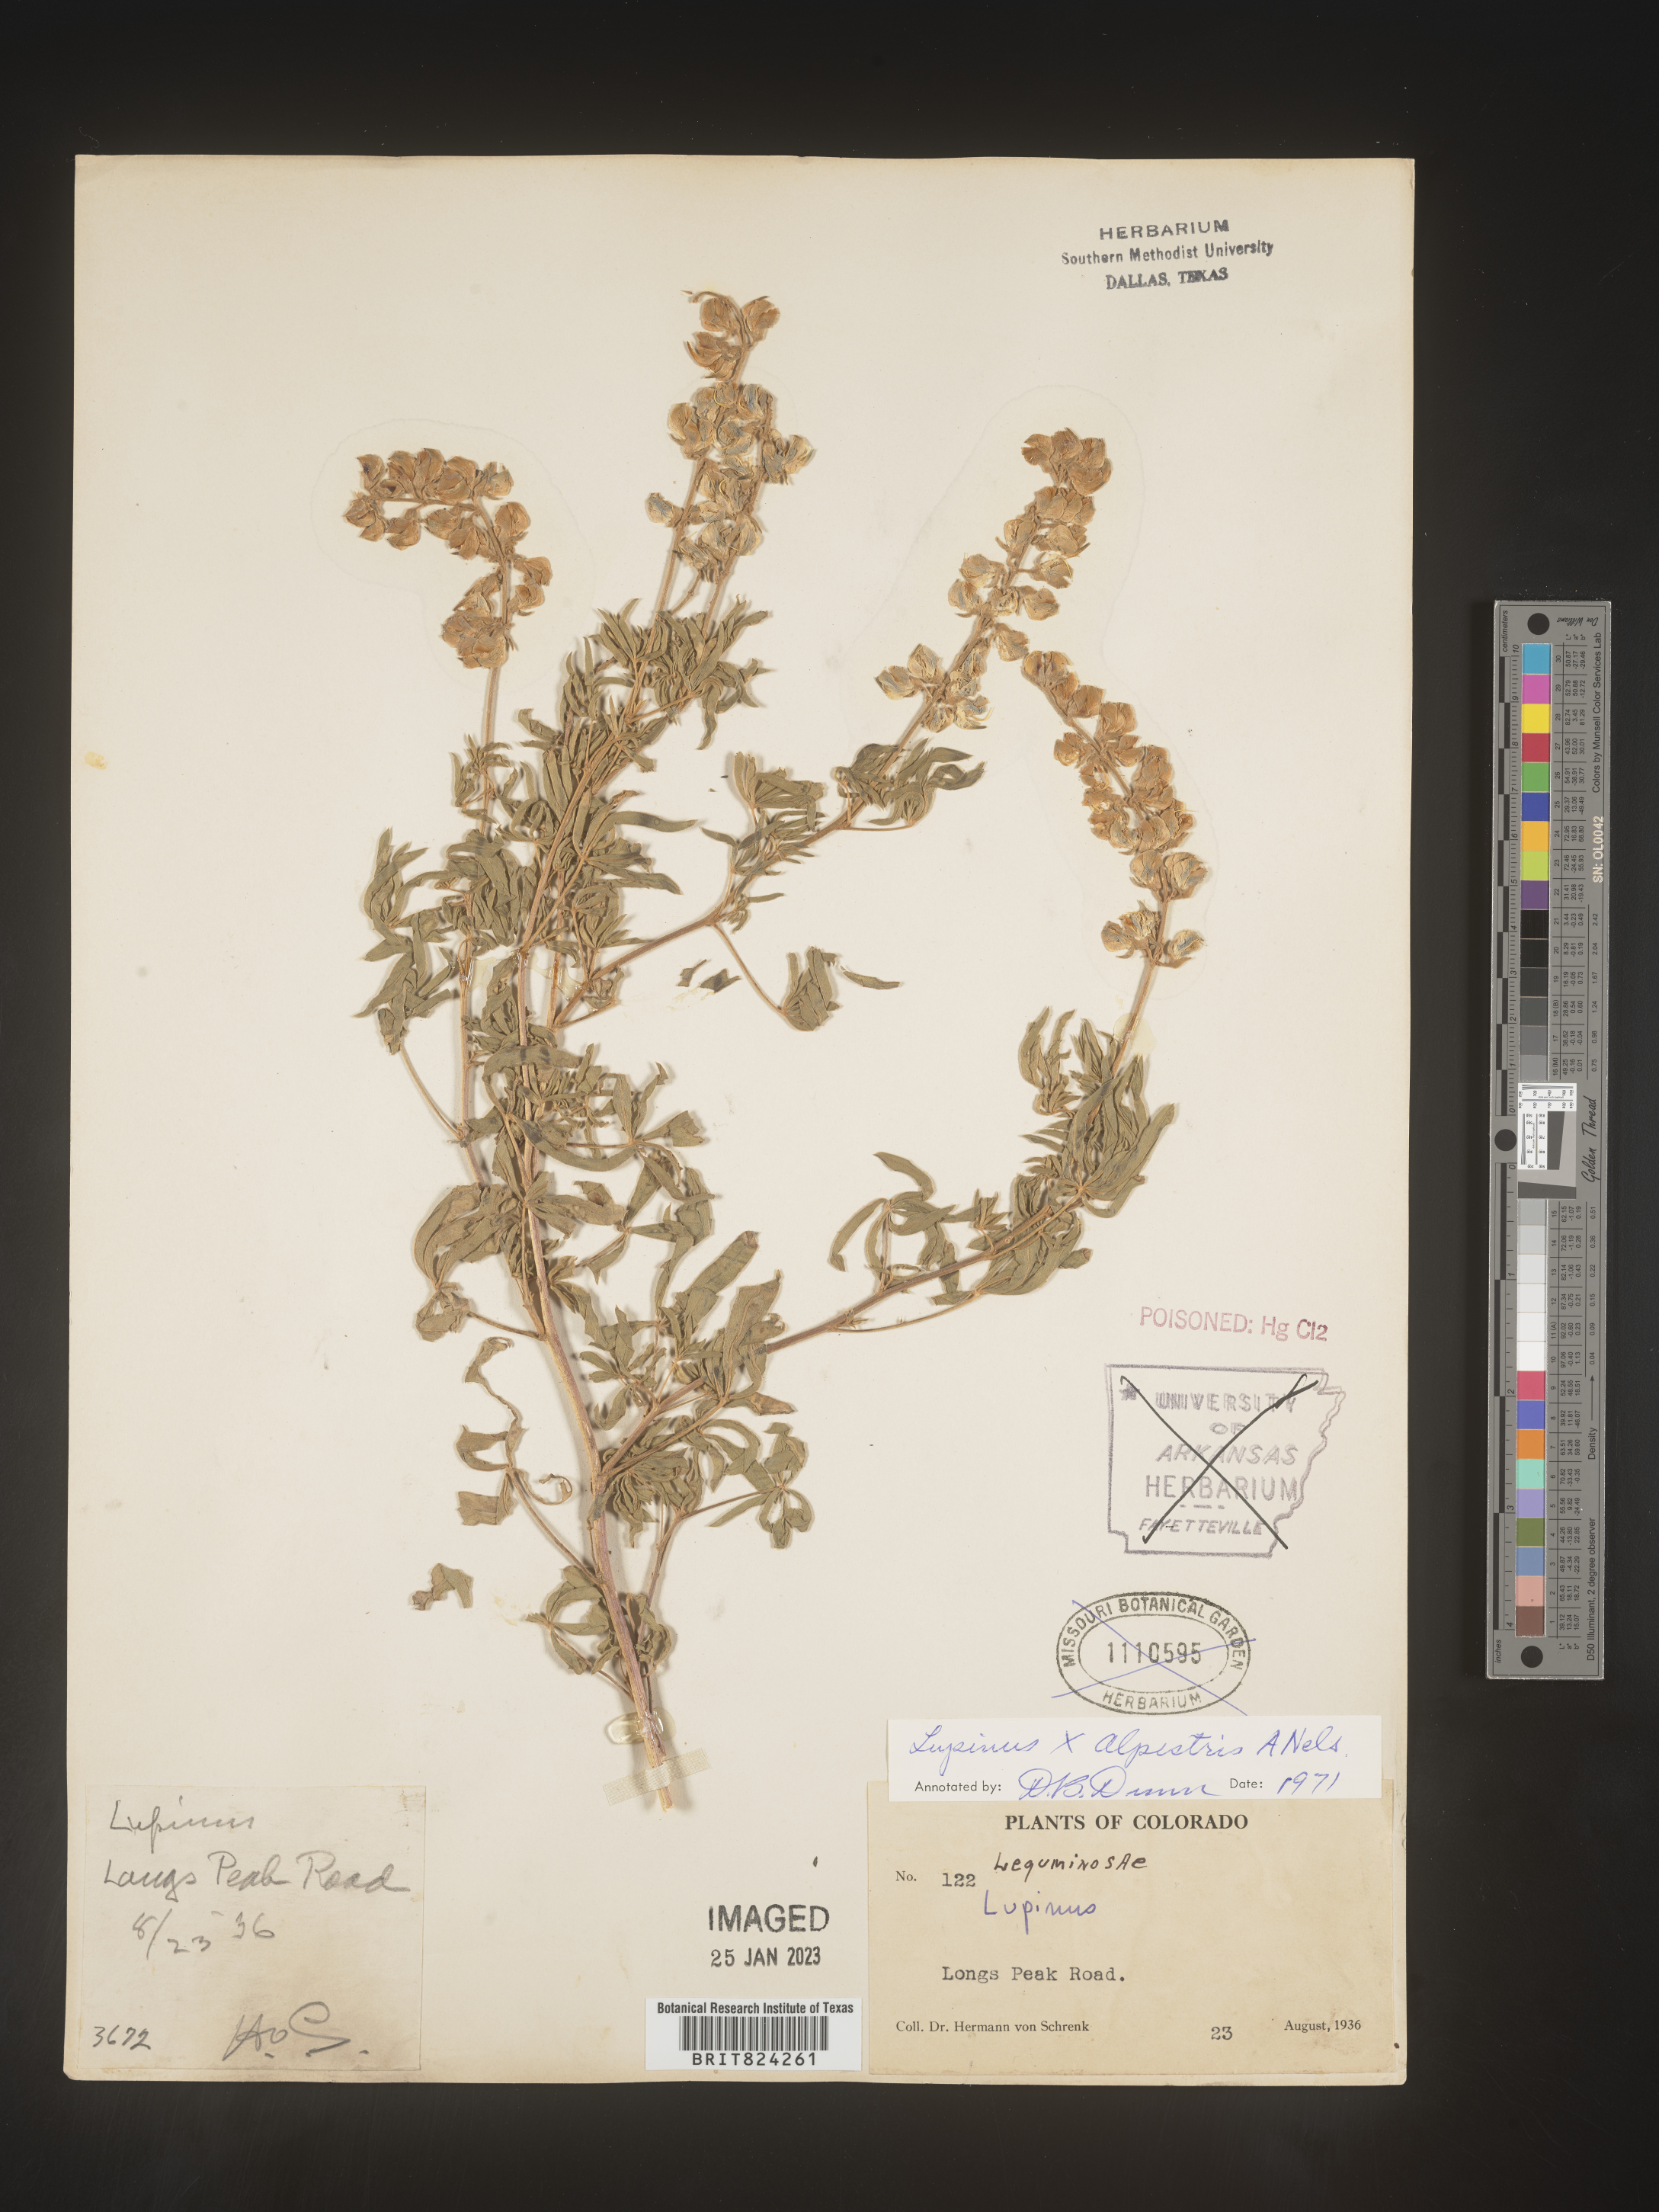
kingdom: Plantae
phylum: Tracheophyta
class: Magnoliopsida
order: Fabales
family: Fabaceae
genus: Lupinus
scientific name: Lupinus
